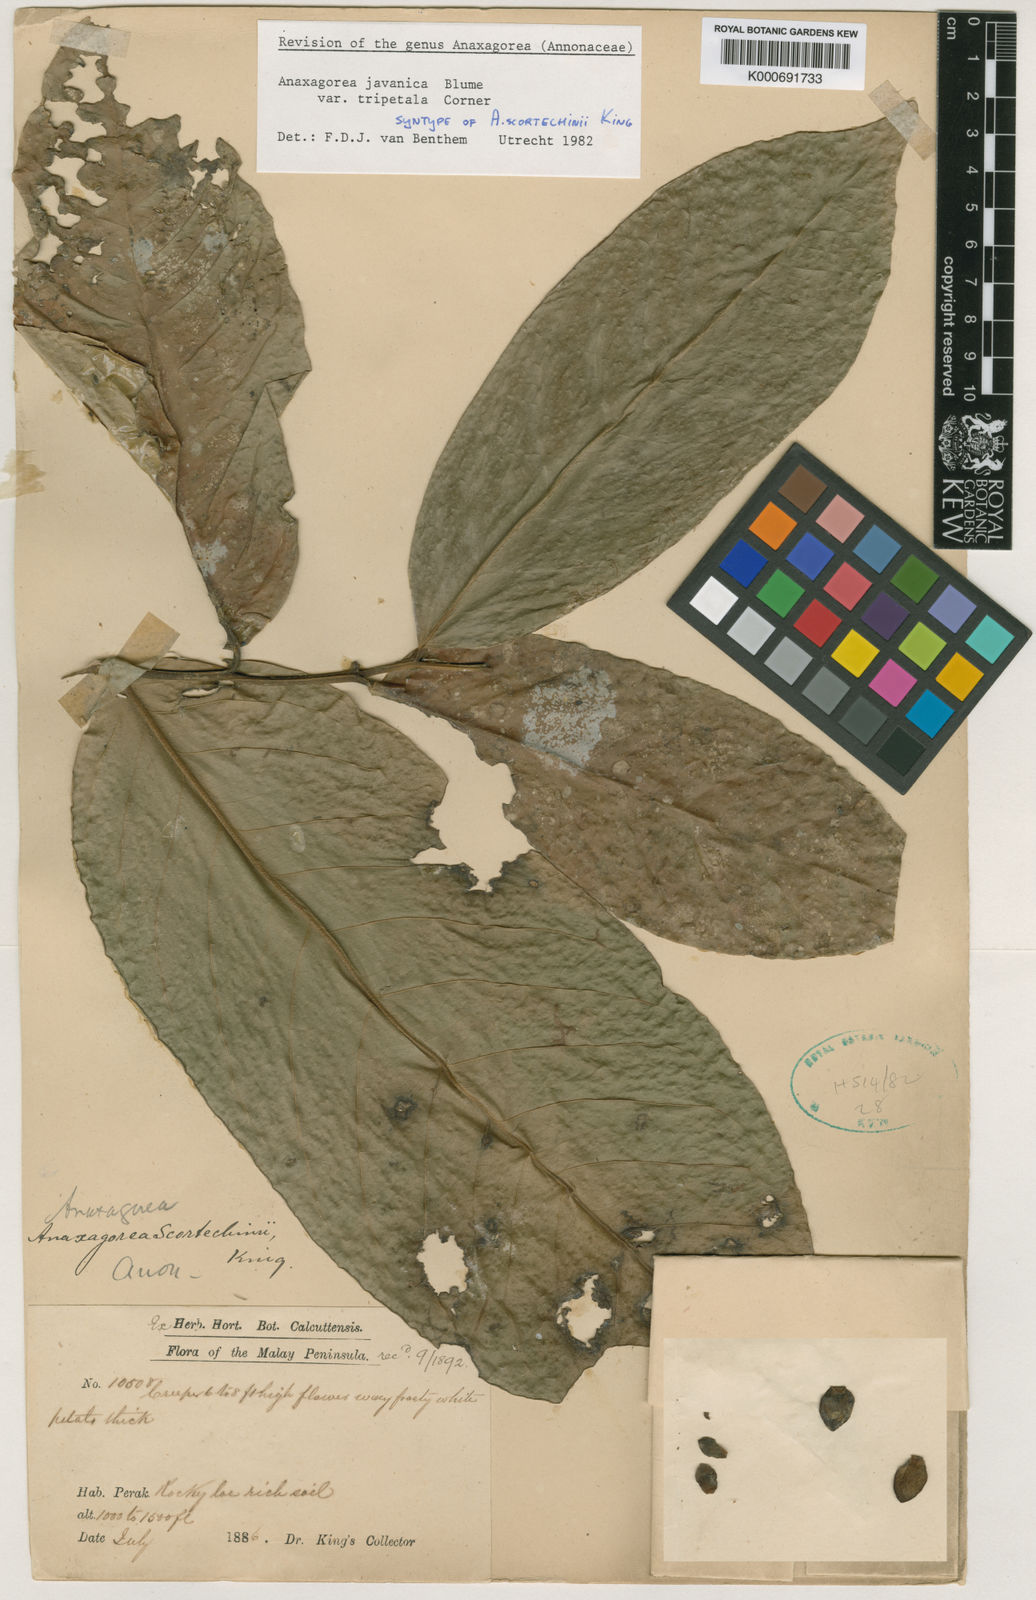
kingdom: Plantae
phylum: Tracheophyta
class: Magnoliopsida
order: Magnoliales
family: Annonaceae
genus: Anaxagorea
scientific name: Anaxagorea javanica
